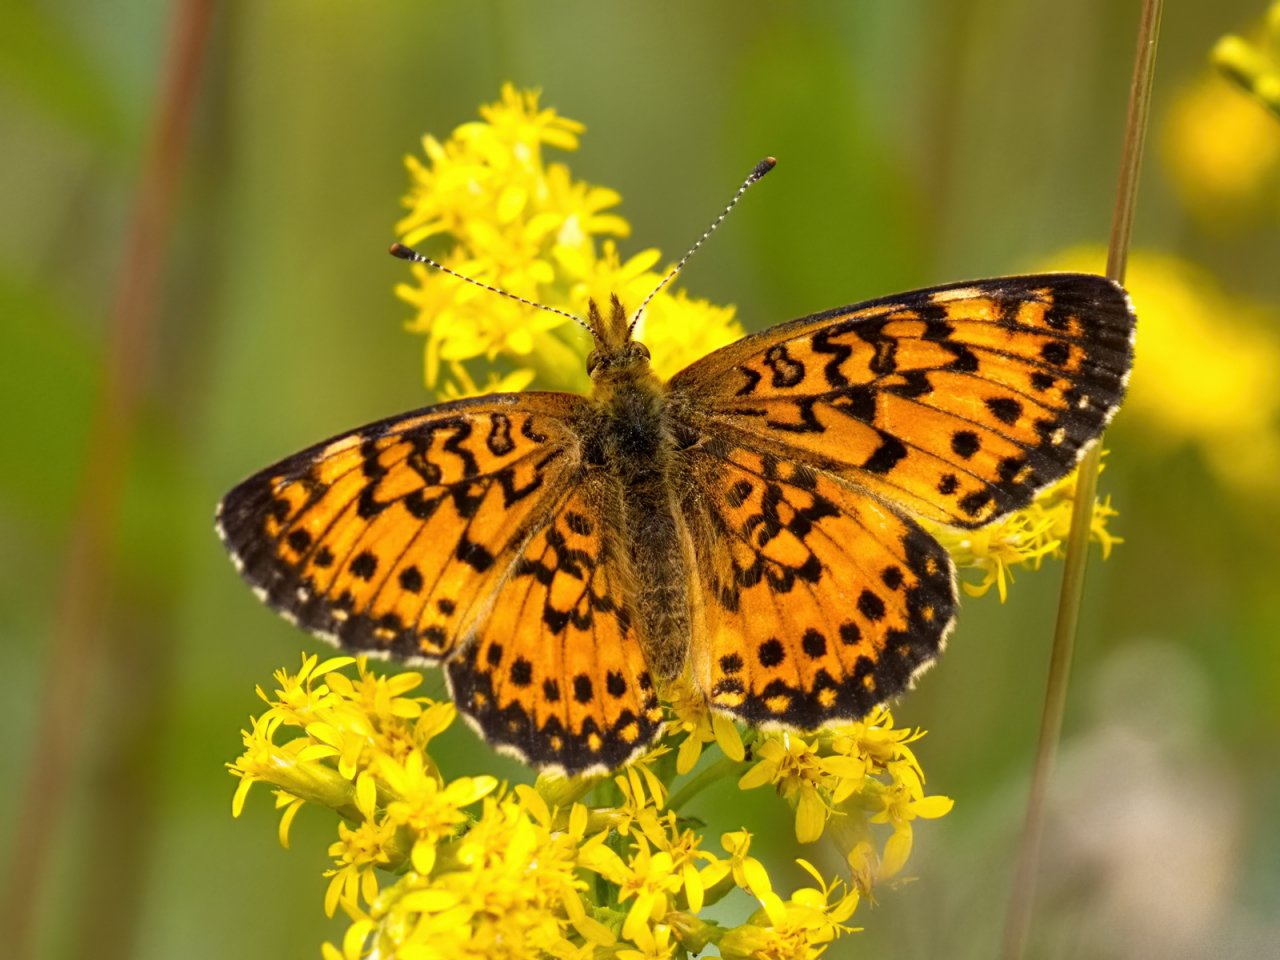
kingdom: Animalia
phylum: Arthropoda
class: Insecta
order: Lepidoptera
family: Nymphalidae
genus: Boloria
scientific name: Boloria selene
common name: Silver-bordered Fritillary
